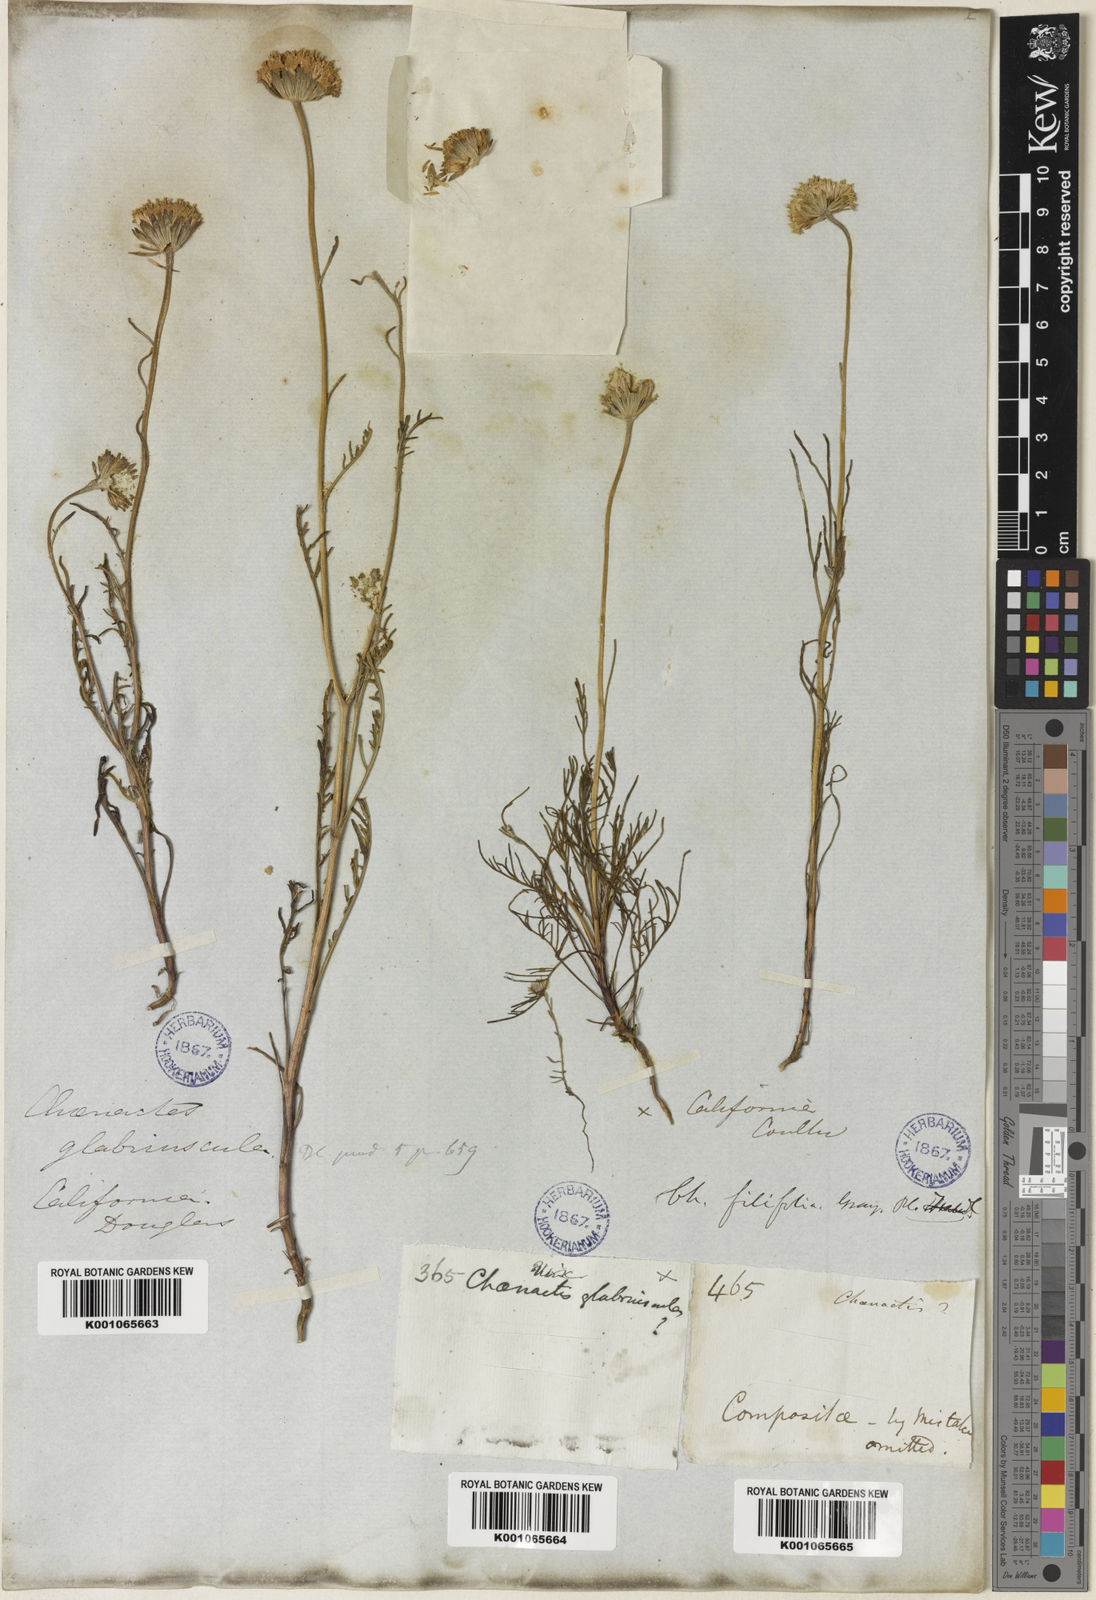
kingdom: Plantae
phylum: Tracheophyta
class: Magnoliopsida
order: Asterales
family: Asteraceae
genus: Chaenactis
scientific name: Chaenactis glabriuscula
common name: Yellow pincushion
